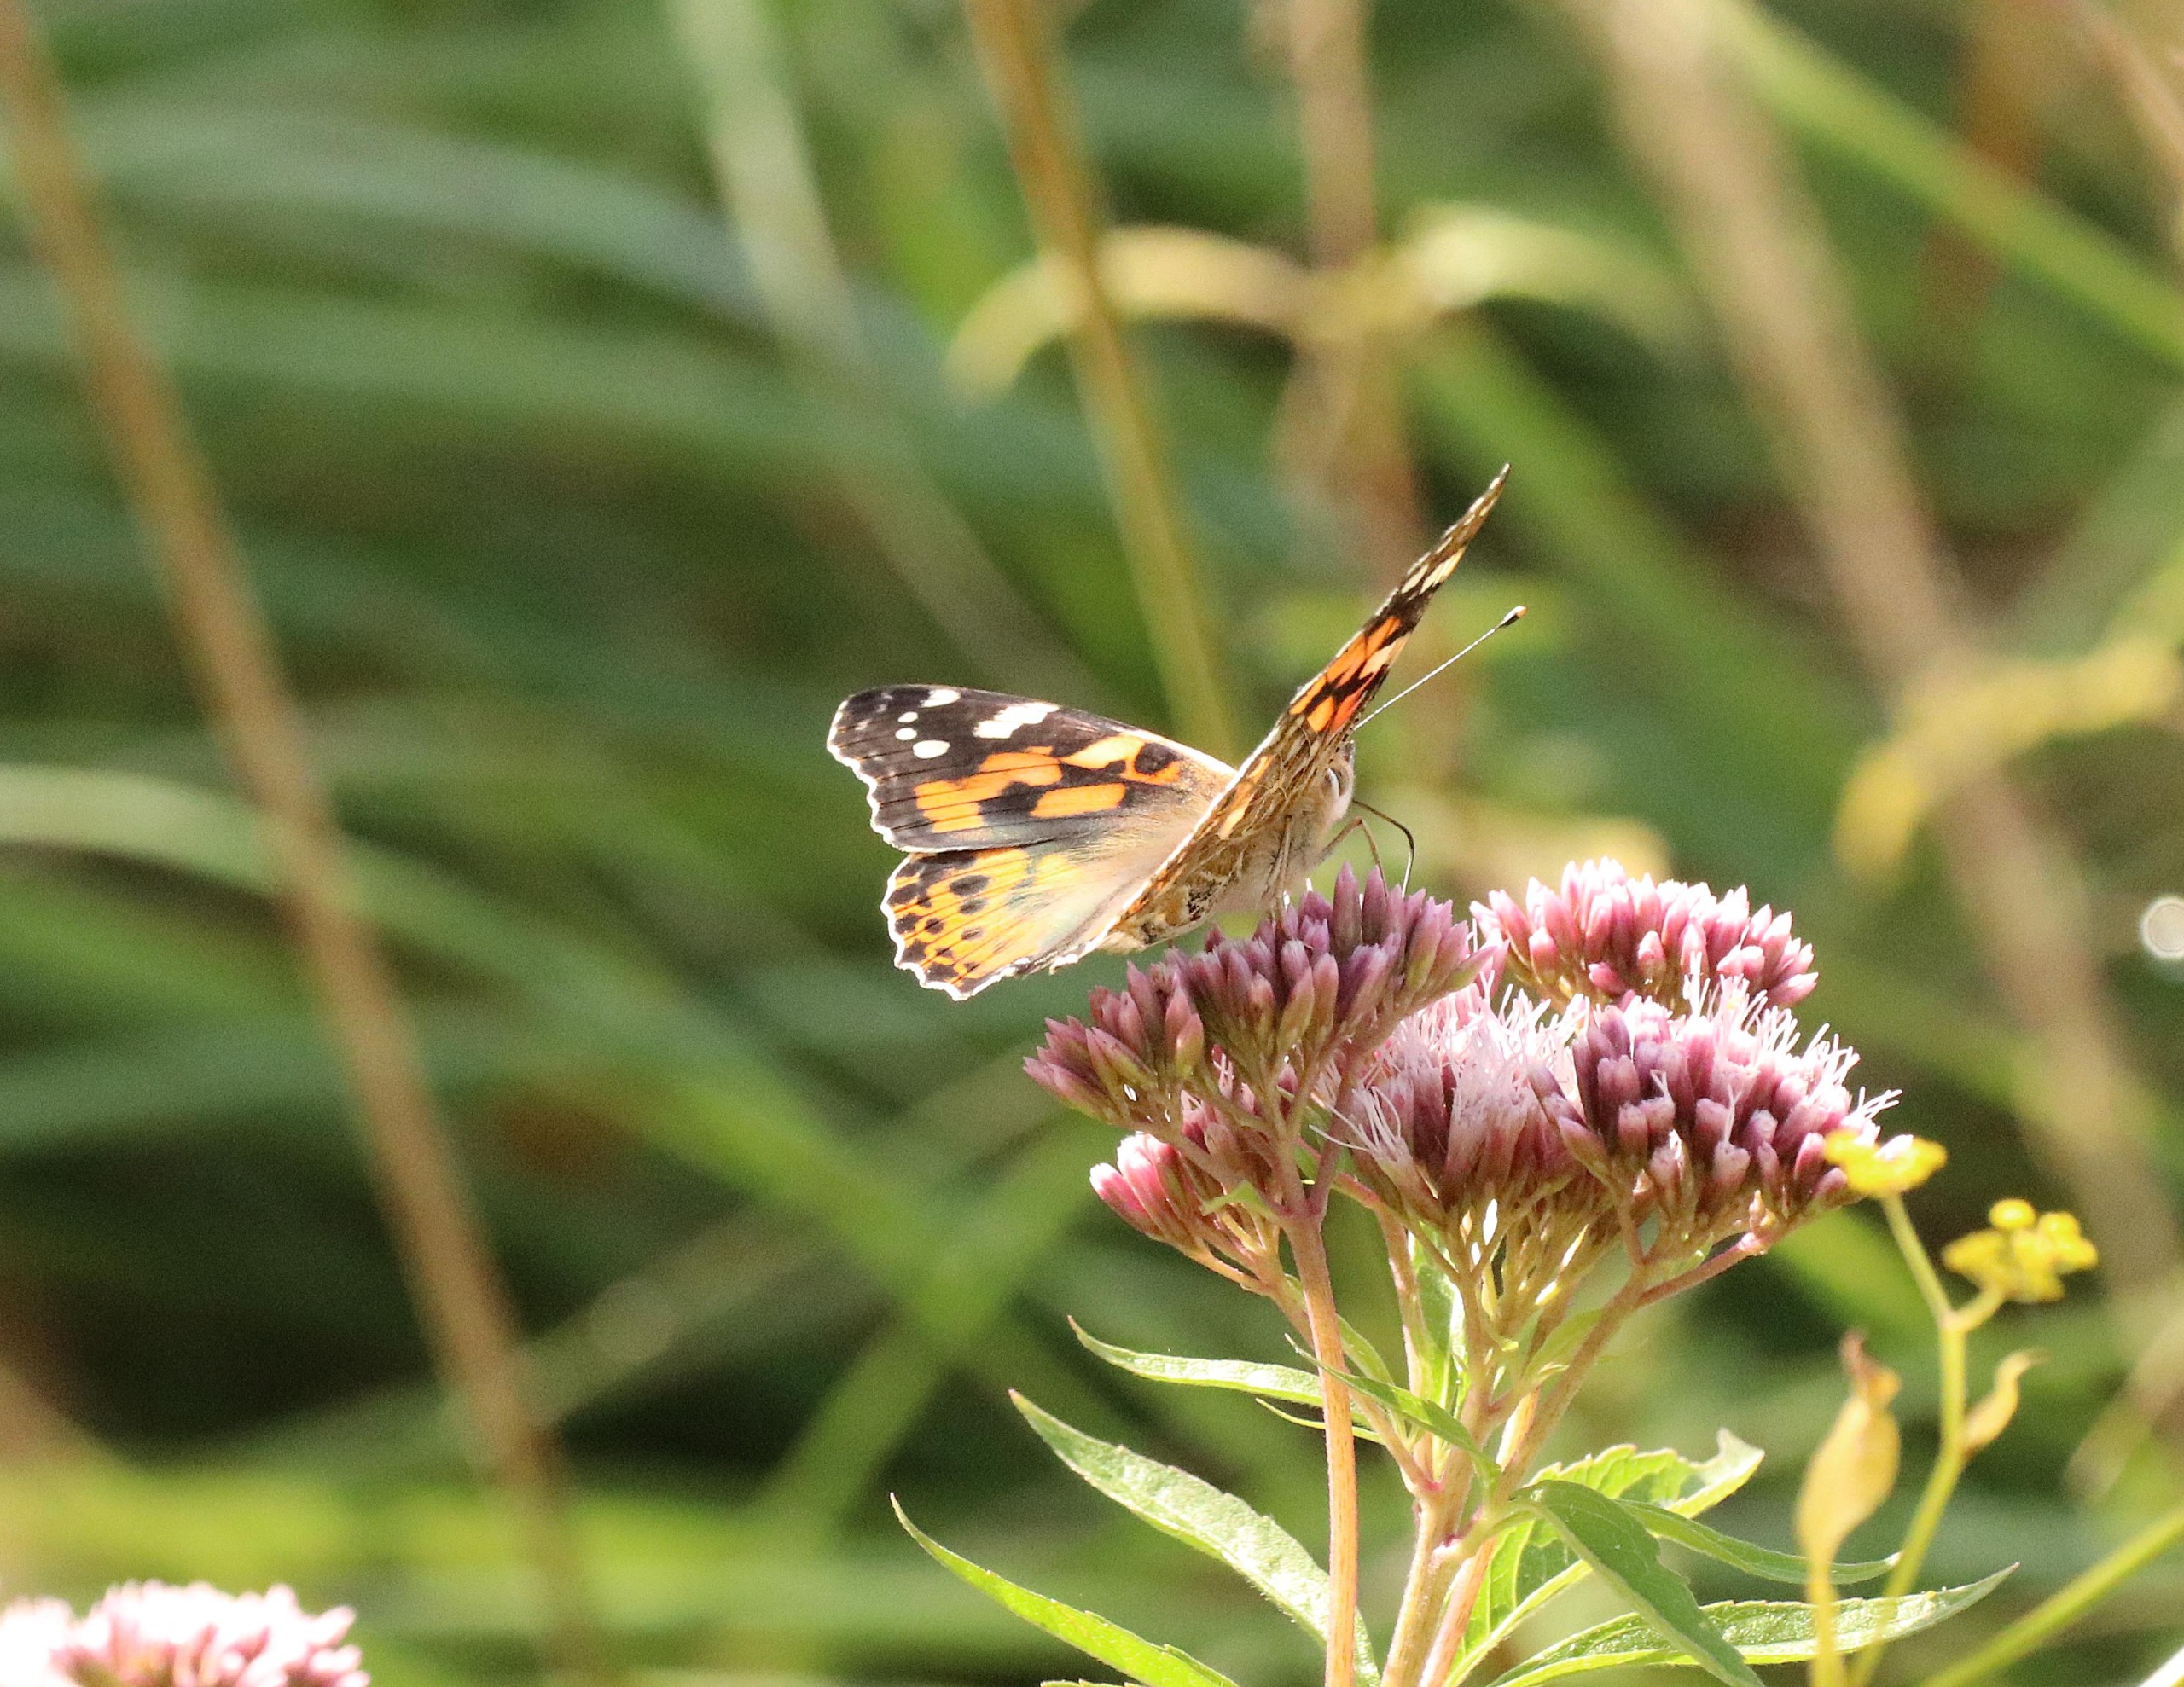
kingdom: Animalia
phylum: Arthropoda
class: Insecta
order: Lepidoptera
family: Nymphalidae
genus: Vanessa
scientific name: Vanessa cardui
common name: Tidselsommerfugl
